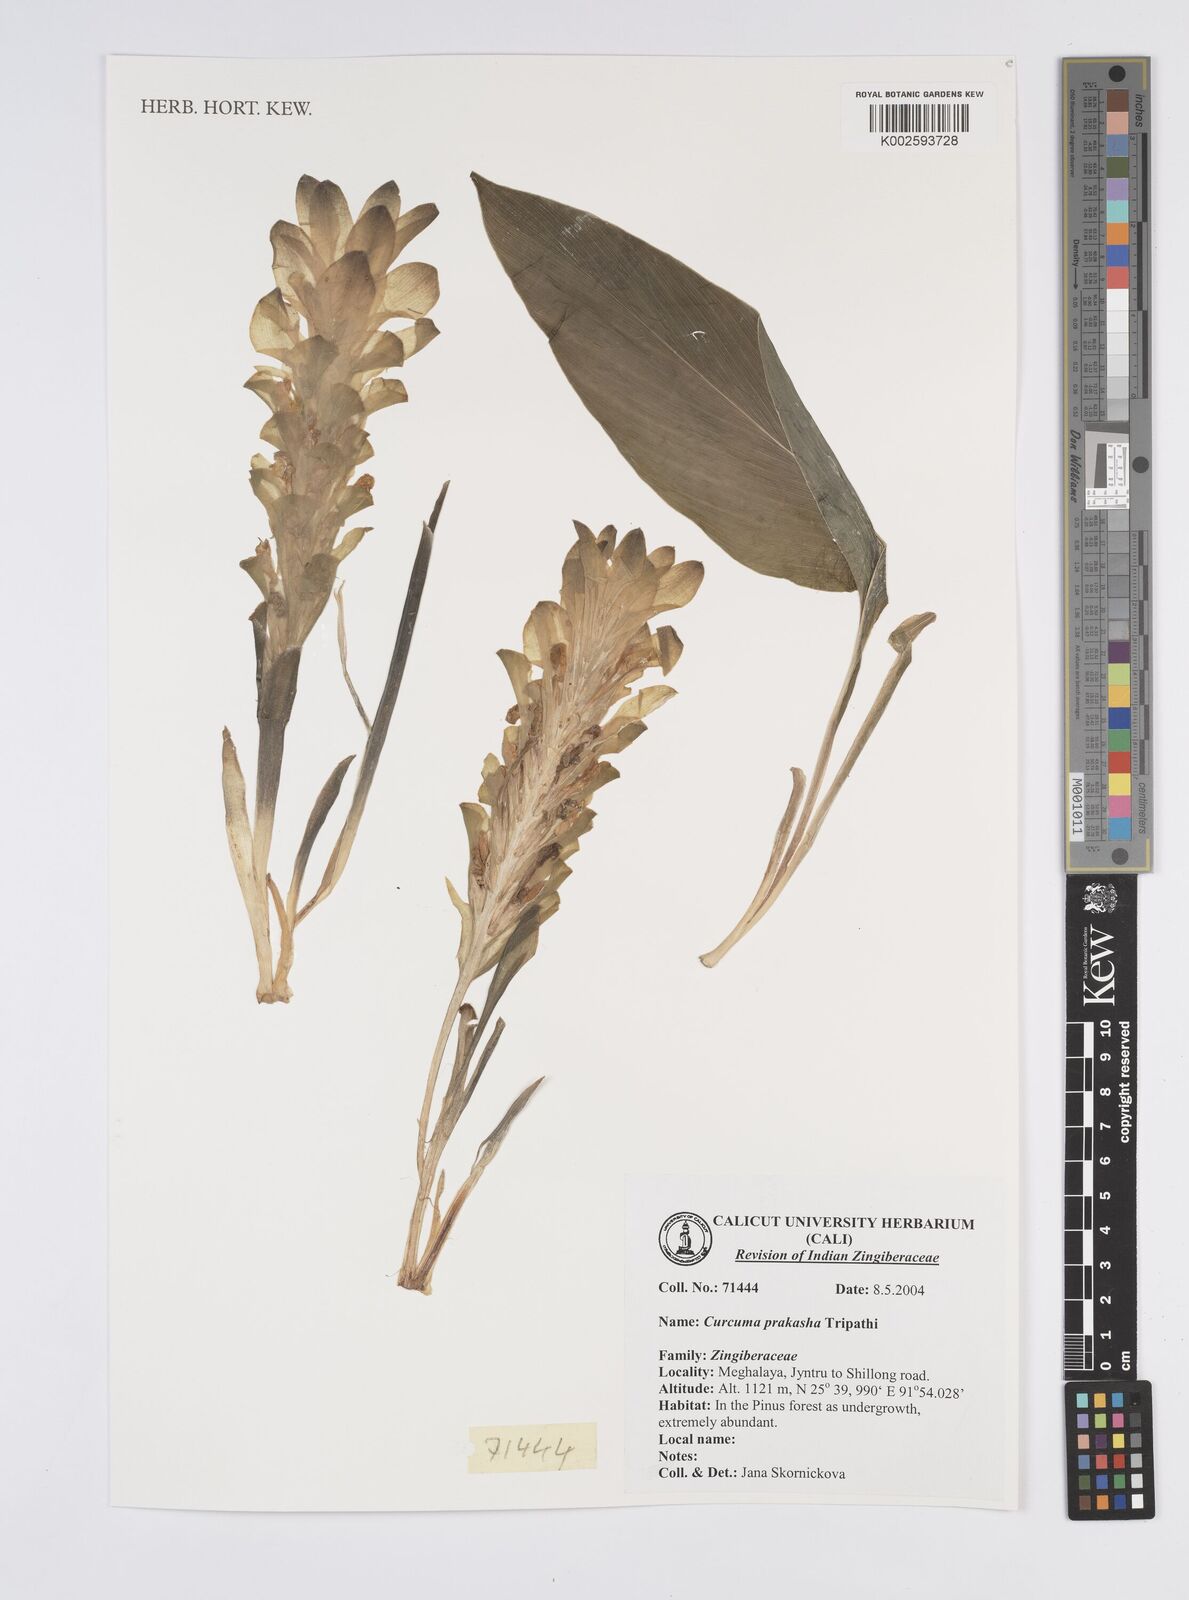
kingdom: Plantae
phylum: Tracheophyta
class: Liliopsida
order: Zingiberales
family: Zingiberaceae
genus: Curcuma
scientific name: Curcuma prakasha
